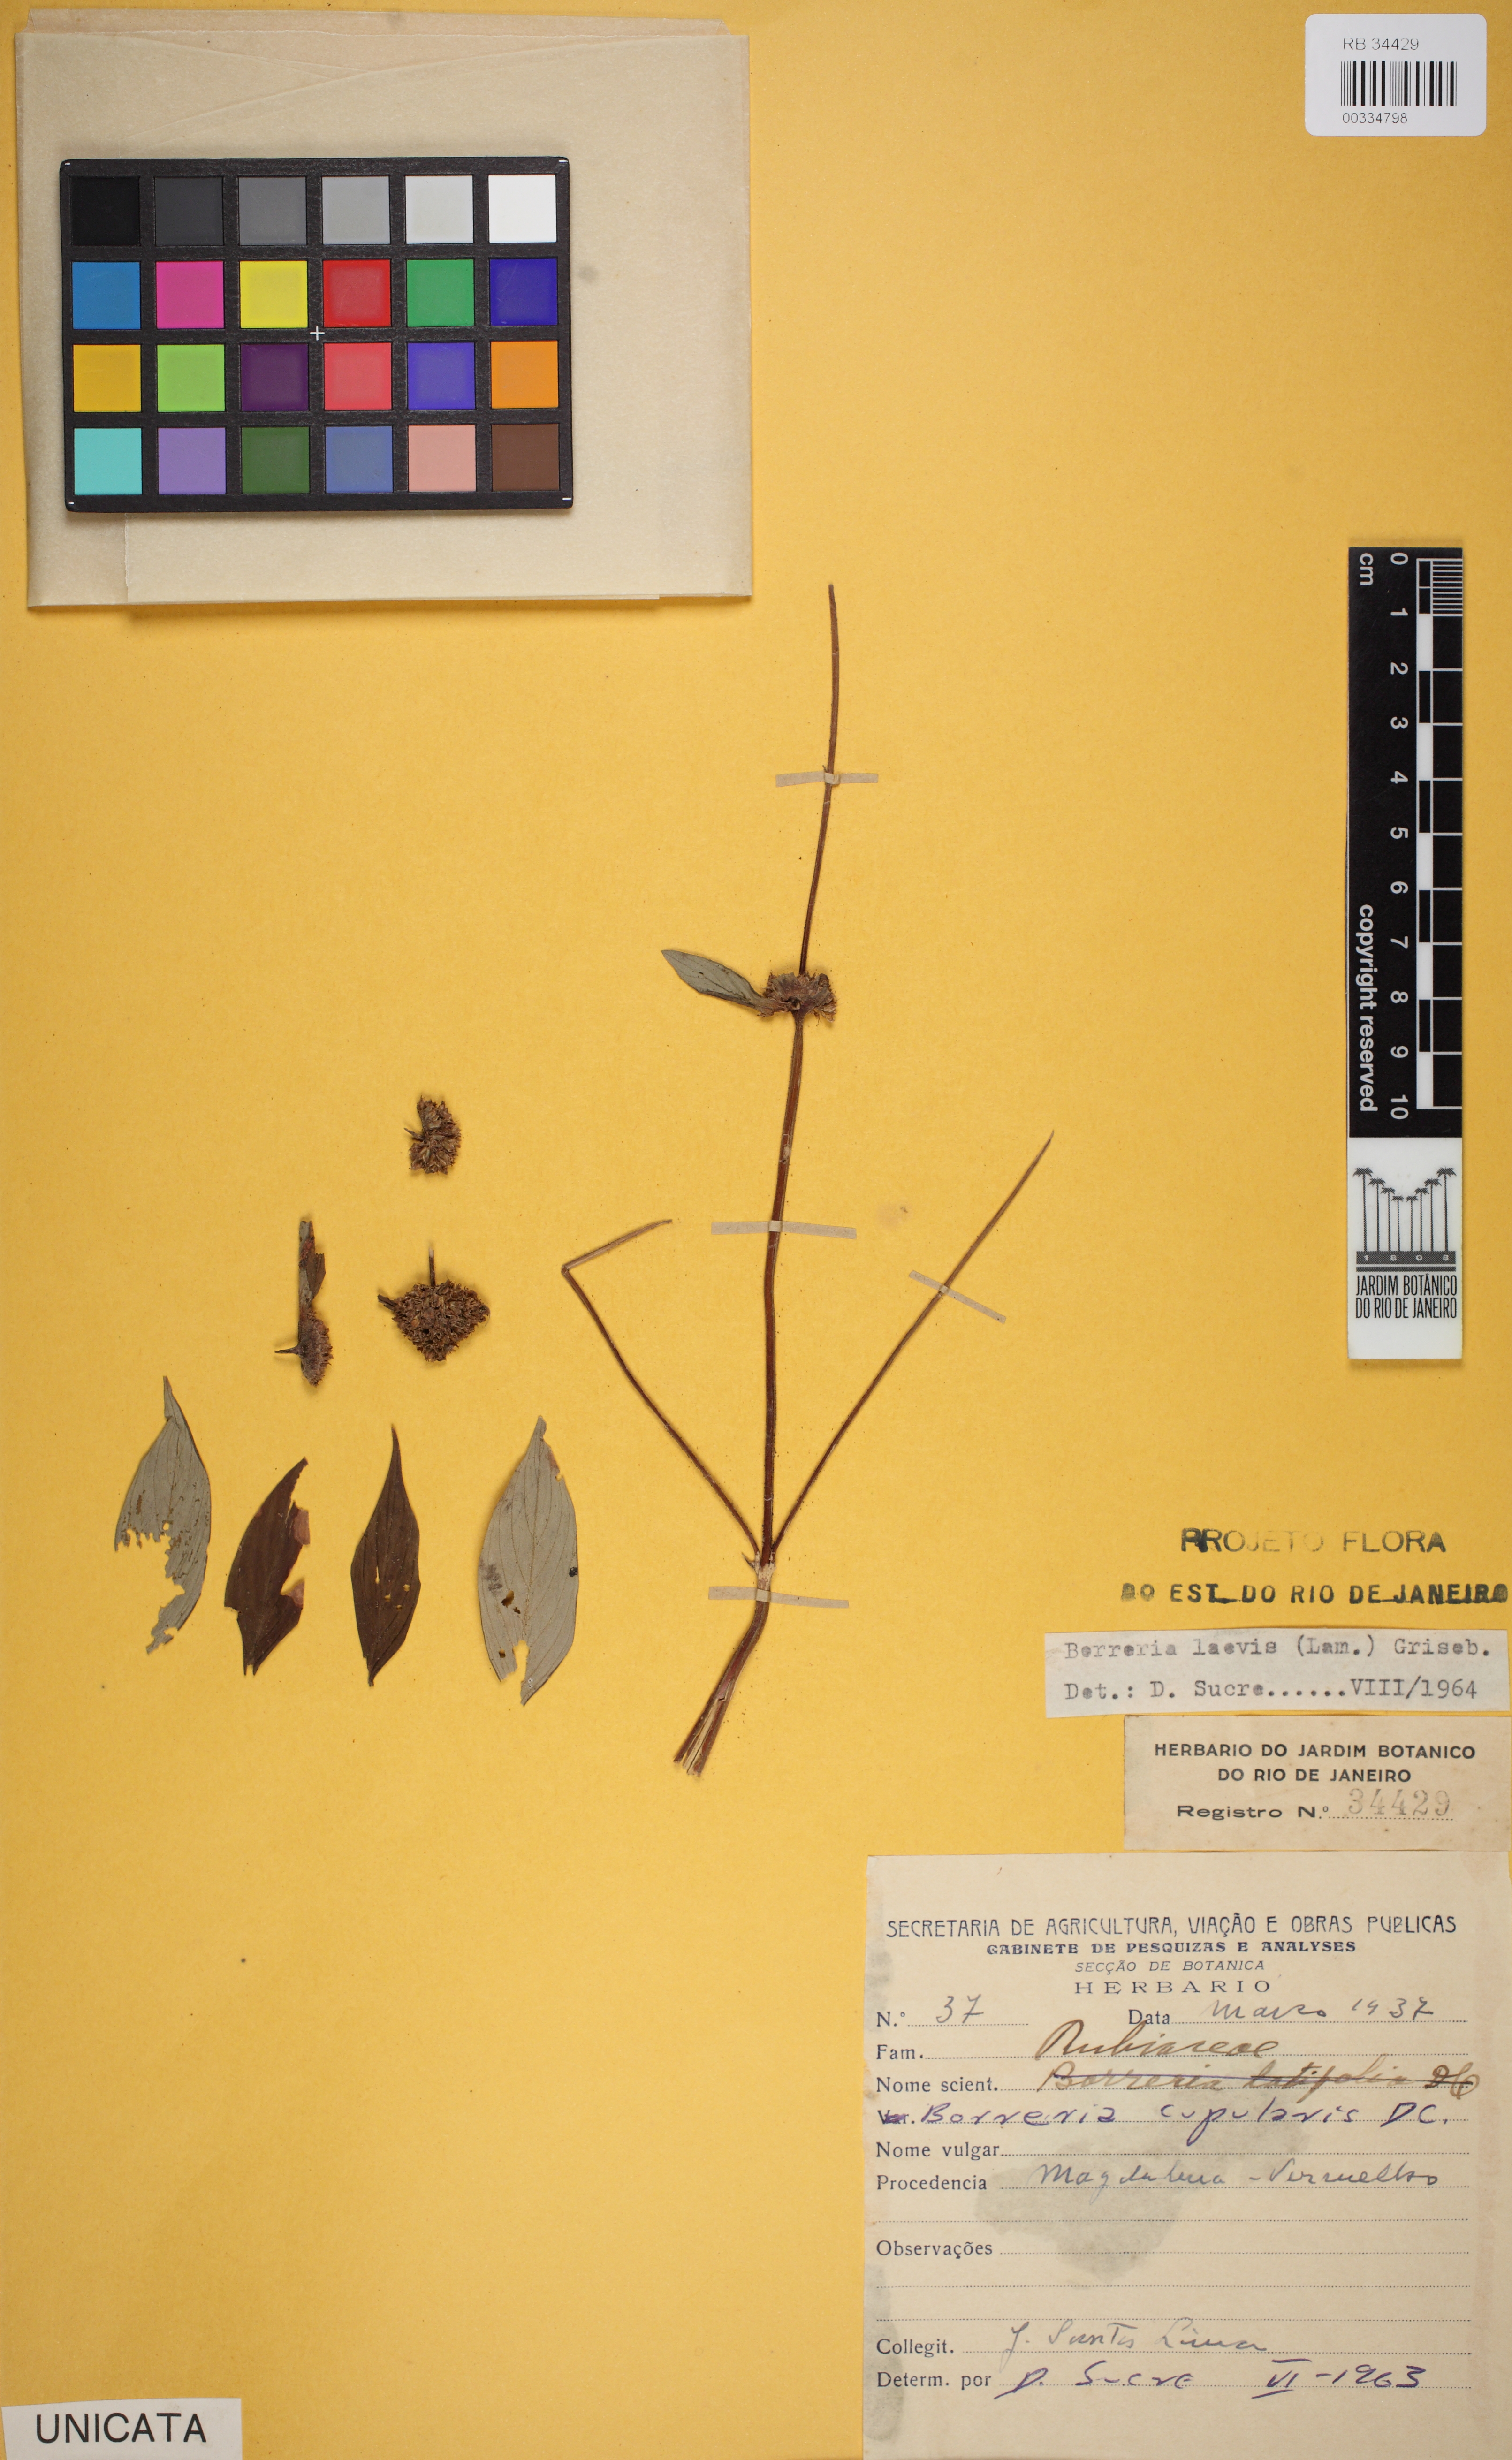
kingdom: Plantae
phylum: Tracheophyta
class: Magnoliopsida
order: Gentianales
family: Rubiaceae
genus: Spermacoce
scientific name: Spermacoce tenuior
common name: River false buttonweed
